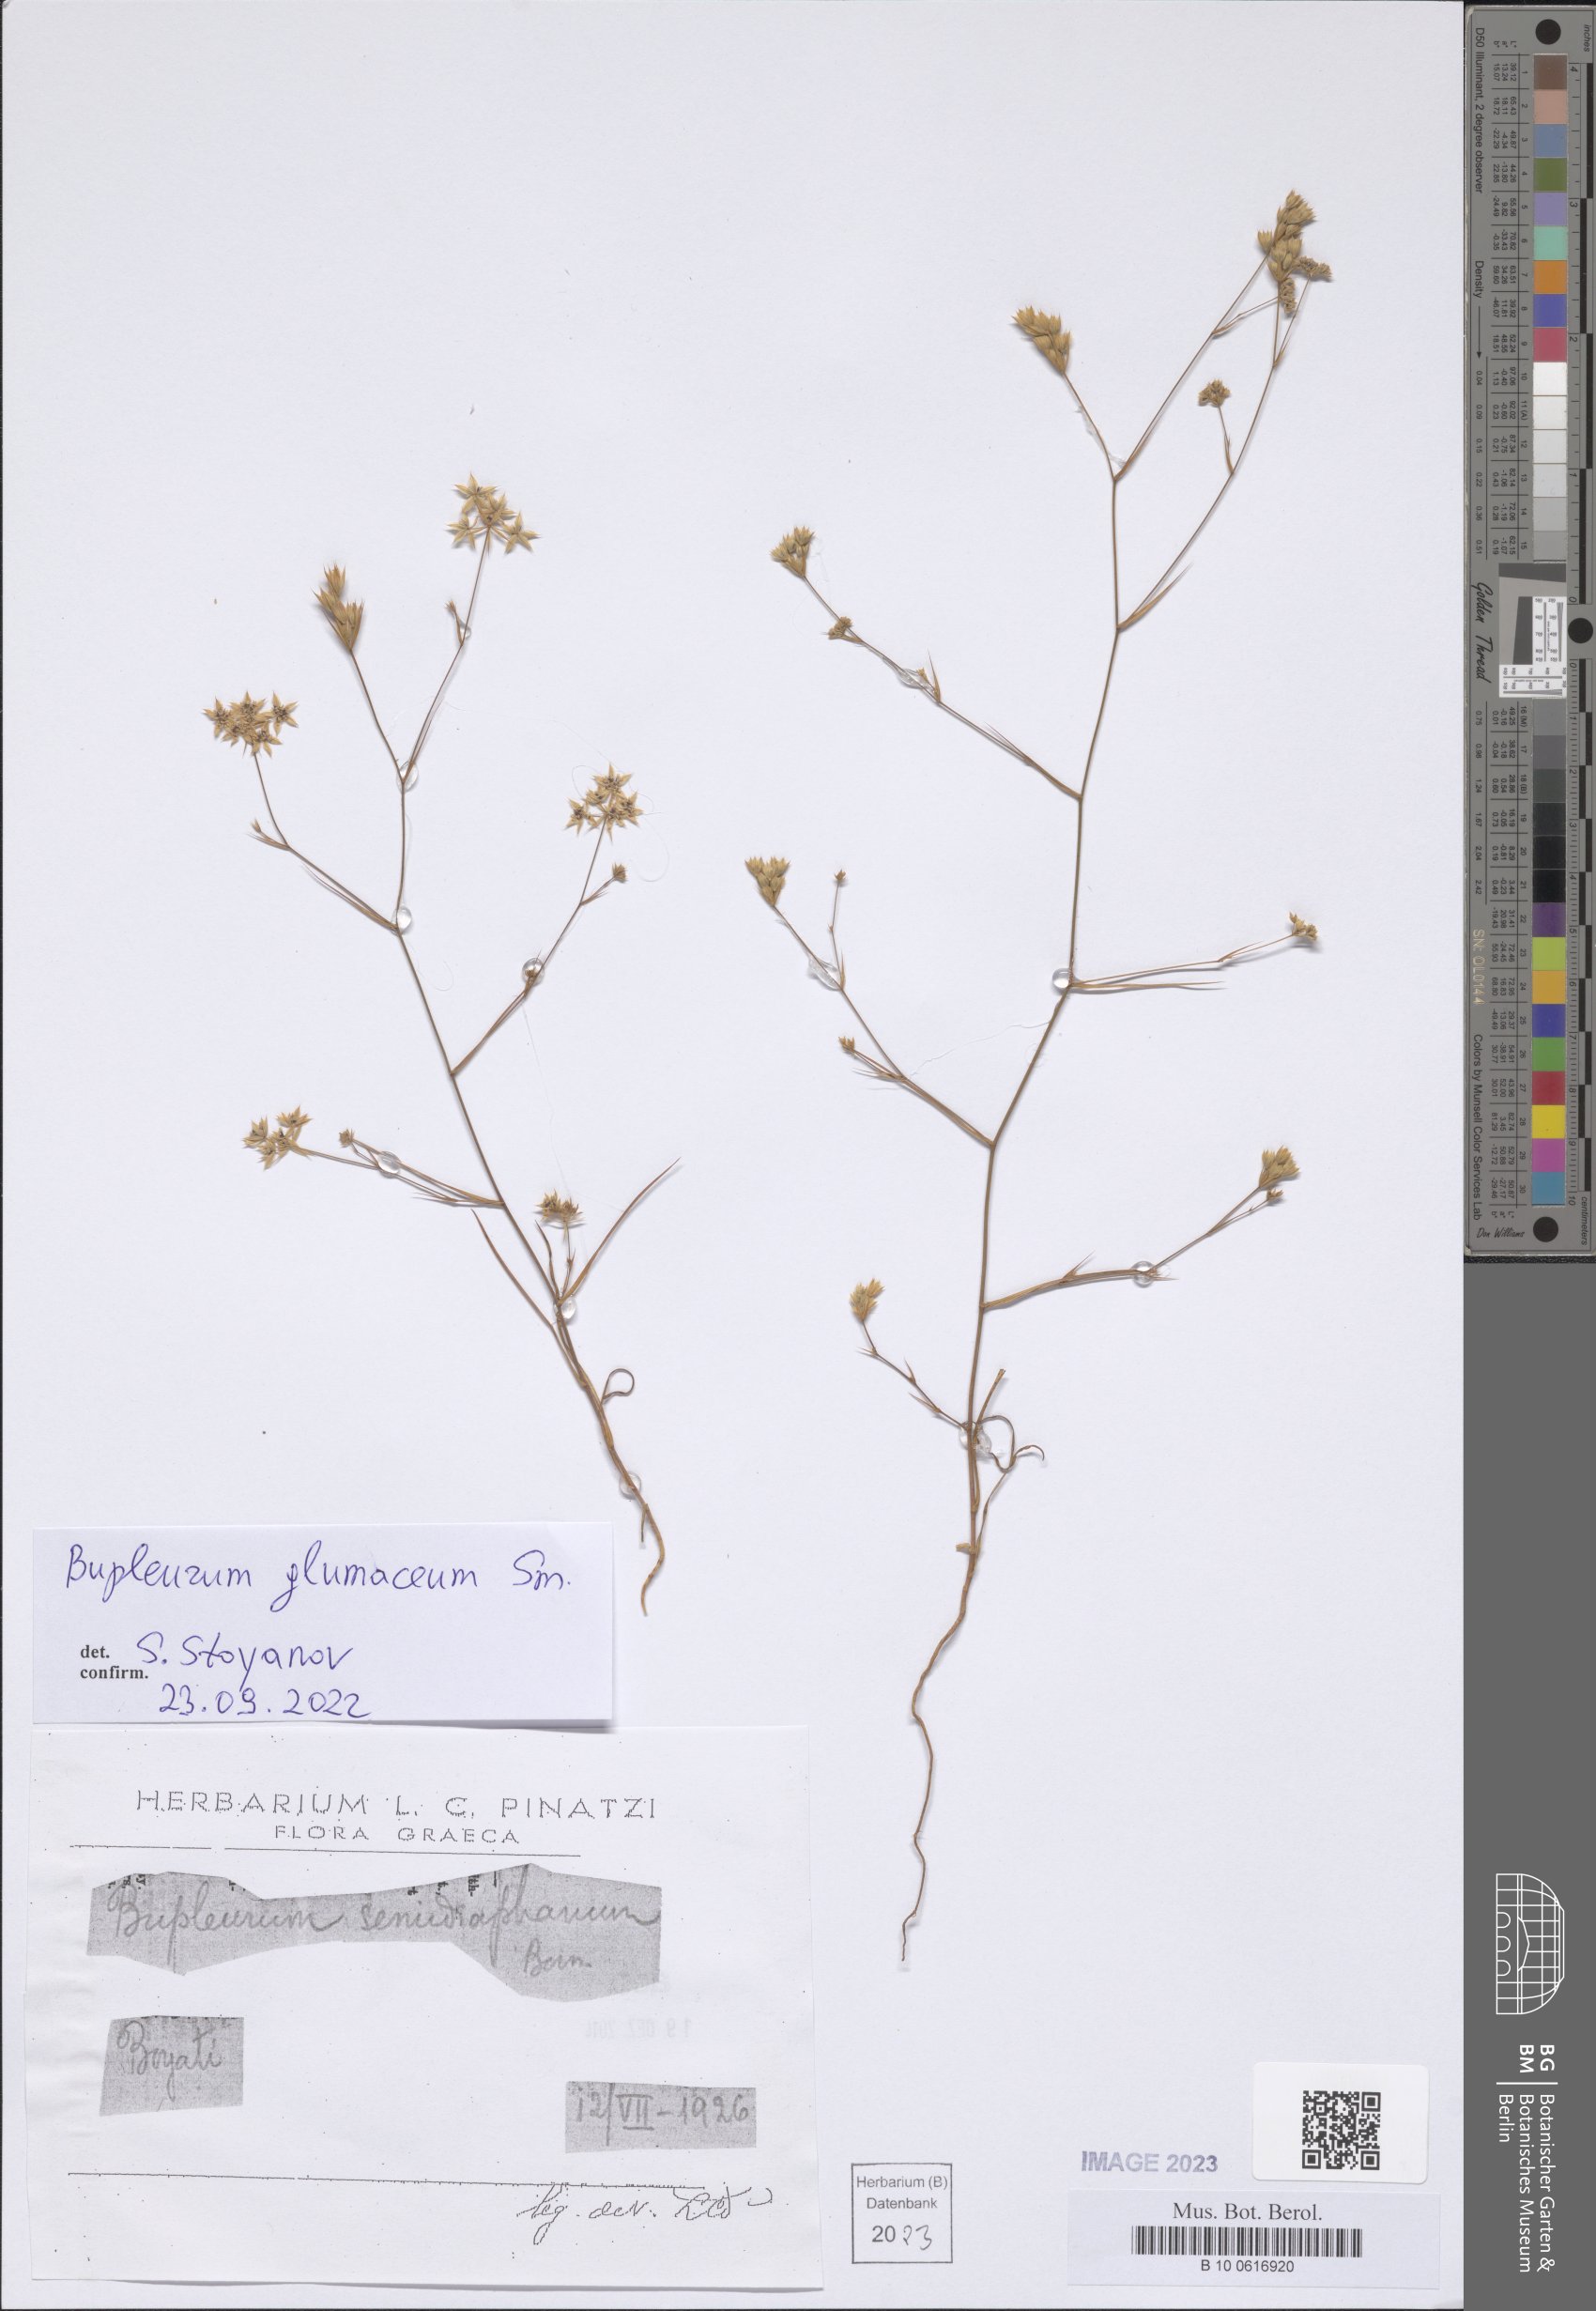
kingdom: Plantae
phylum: Tracheophyta
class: Magnoliopsida
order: Apiales
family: Apiaceae
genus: Bupleurum
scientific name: Bupleurum glumaceum
